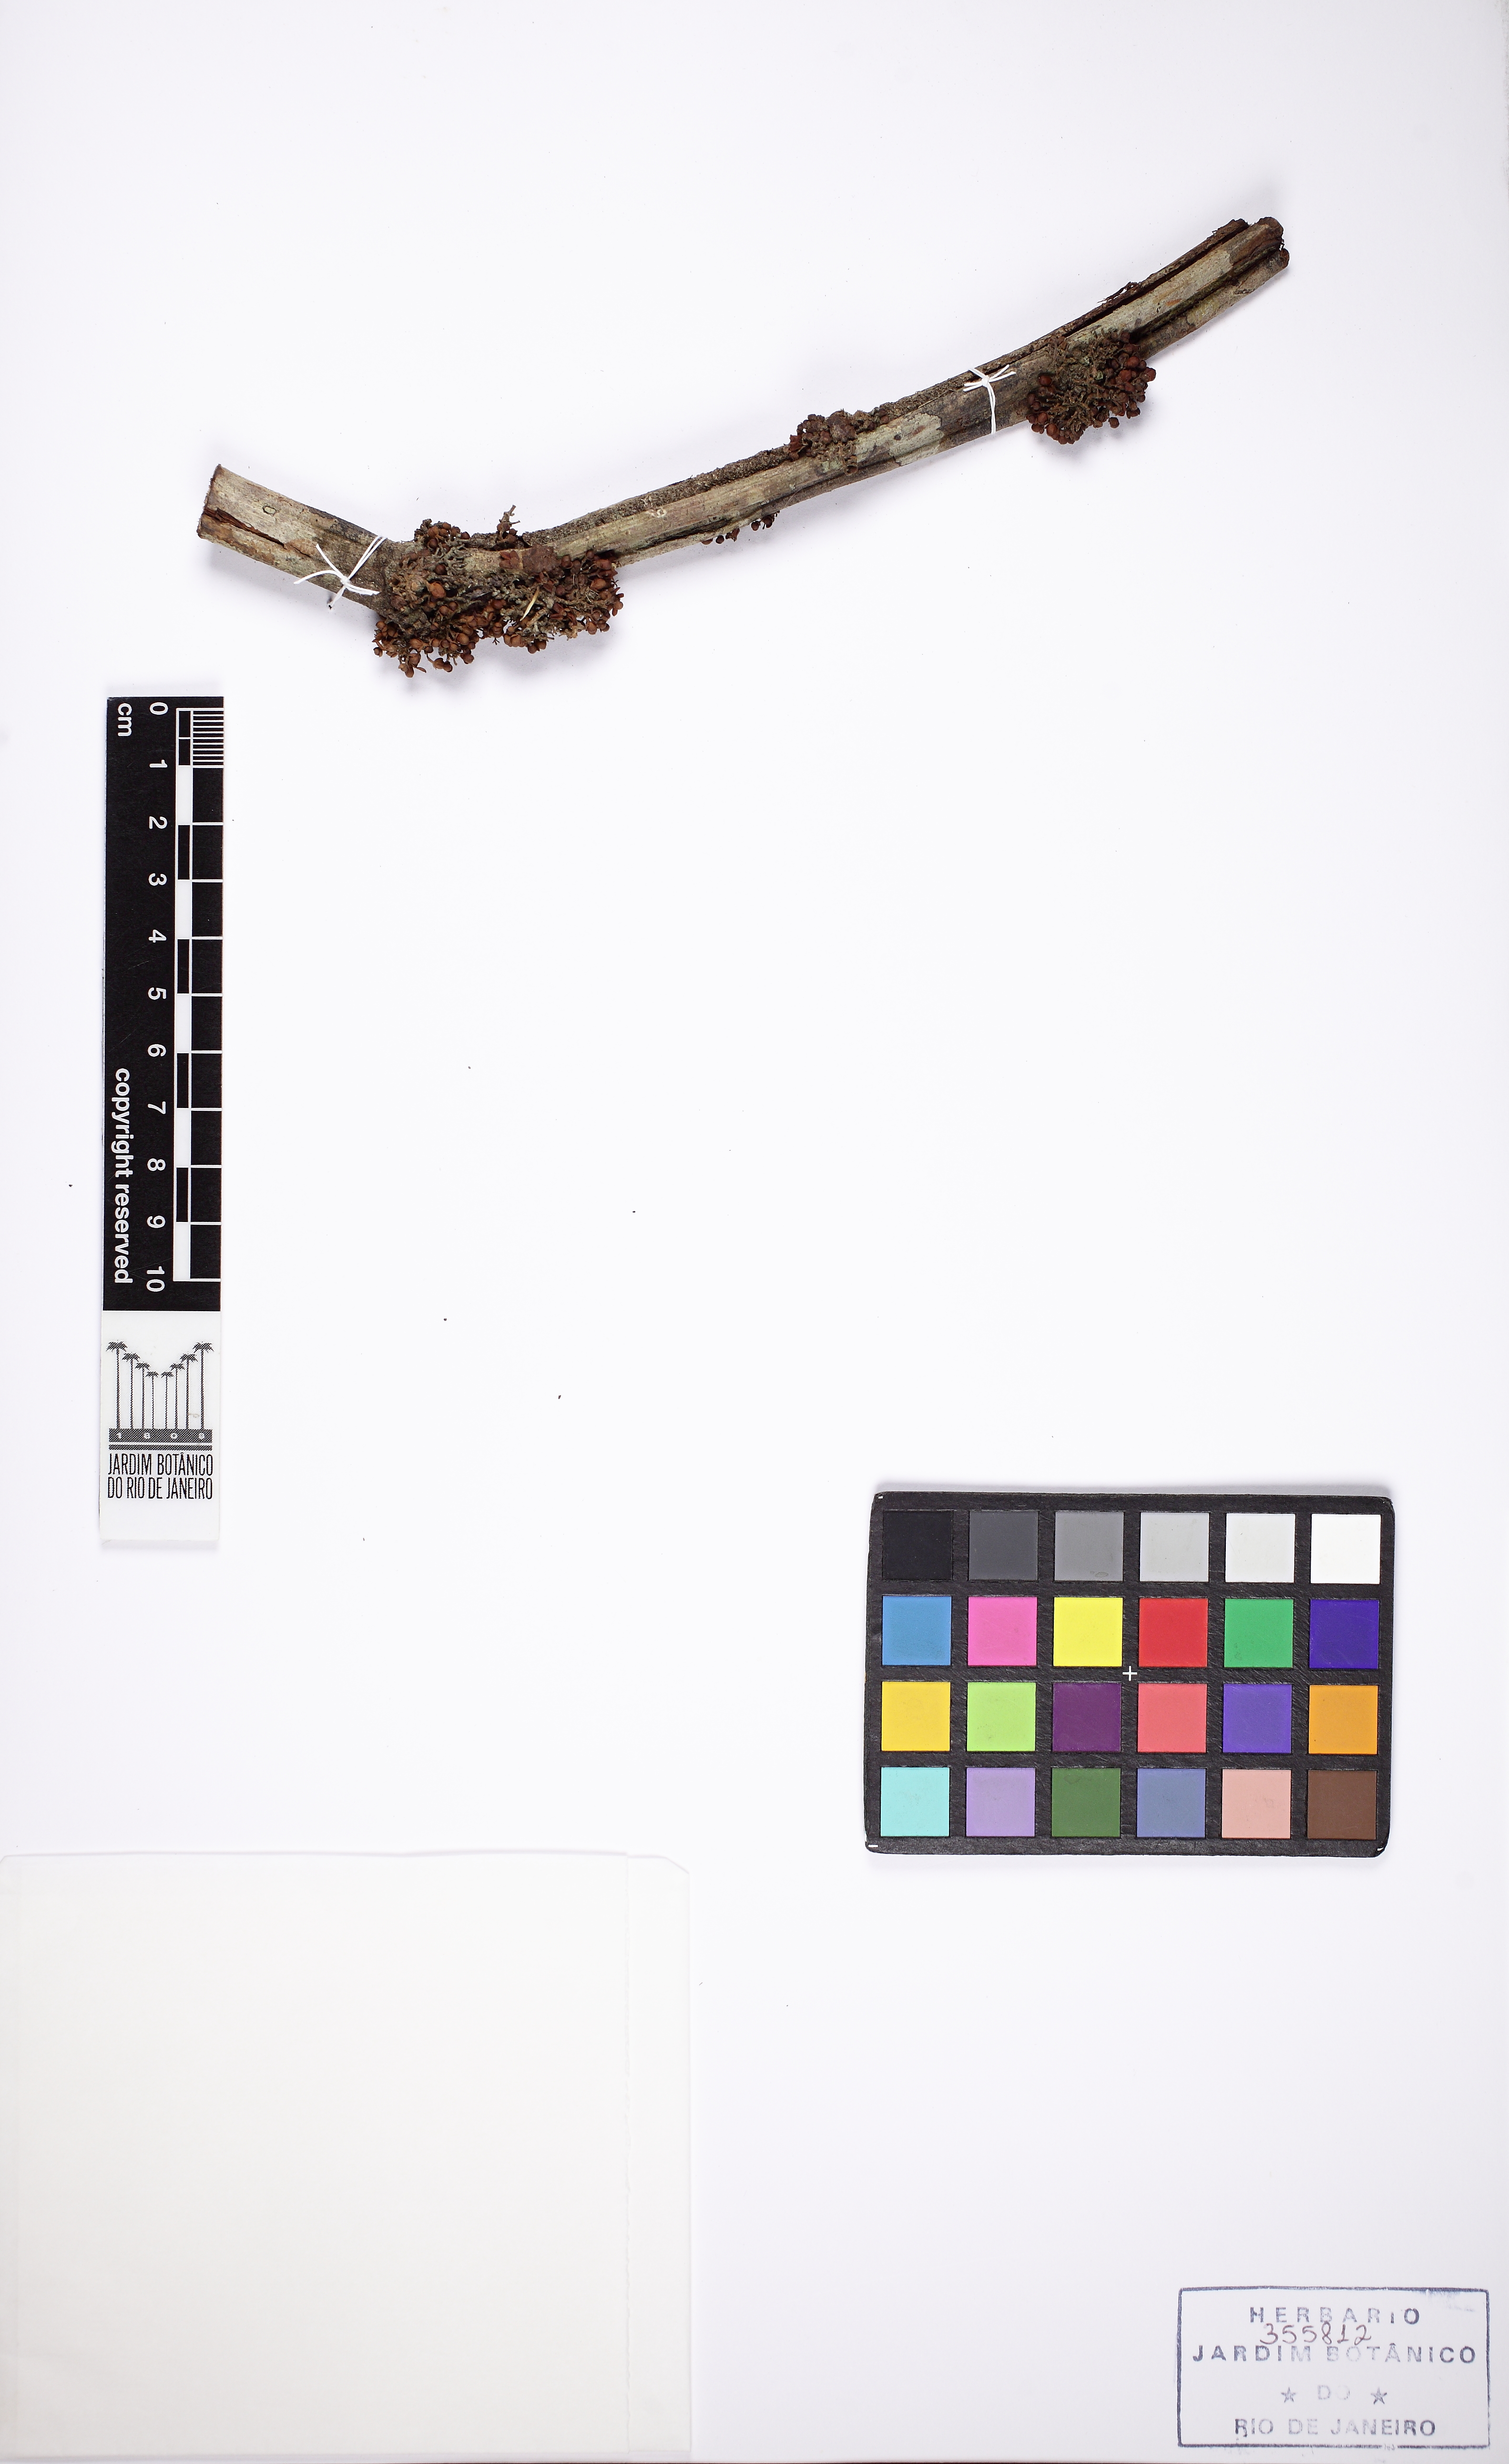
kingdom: Plantae
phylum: Tracheophyta
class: Magnoliopsida
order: Sapindales
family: Sapindaceae
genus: Paullinia
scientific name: Paullinia alata
